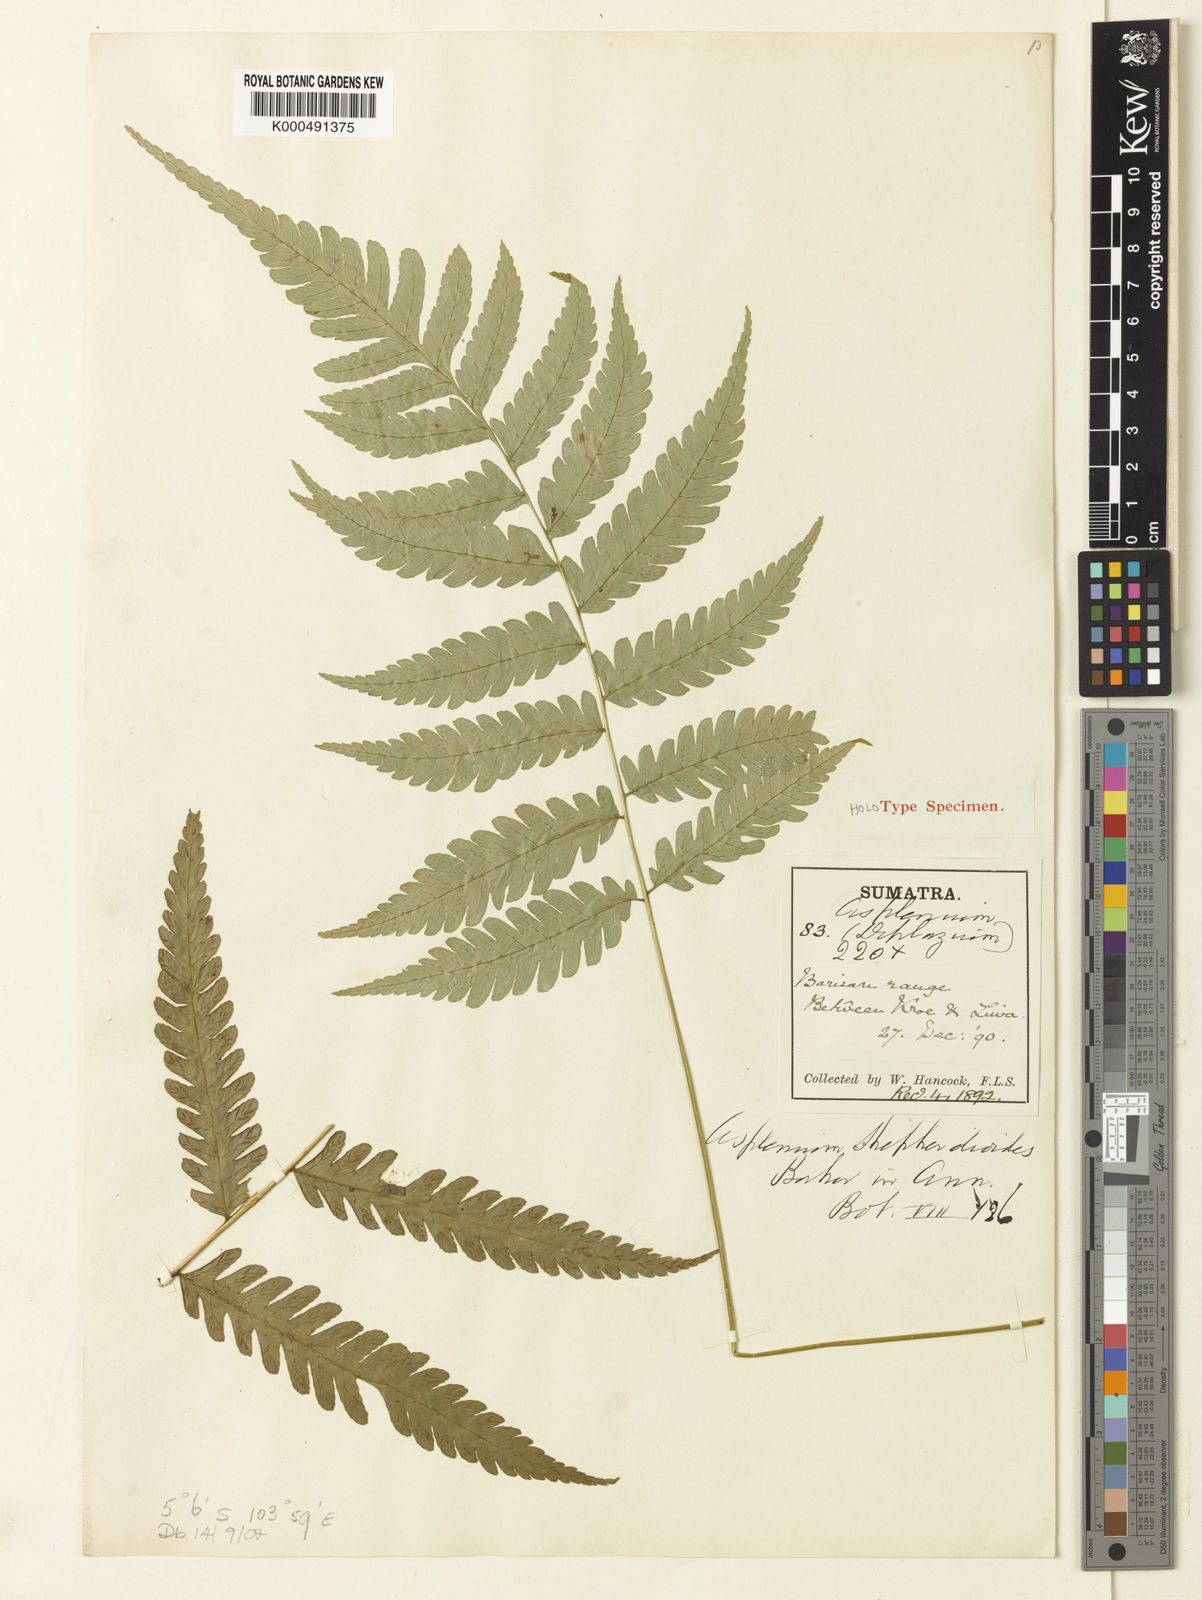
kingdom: Plantae
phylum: Tracheophyta
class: Polypodiopsida
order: Polypodiales
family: Athyriaceae
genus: Diplazium
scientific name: Diplazium shepherdioides
